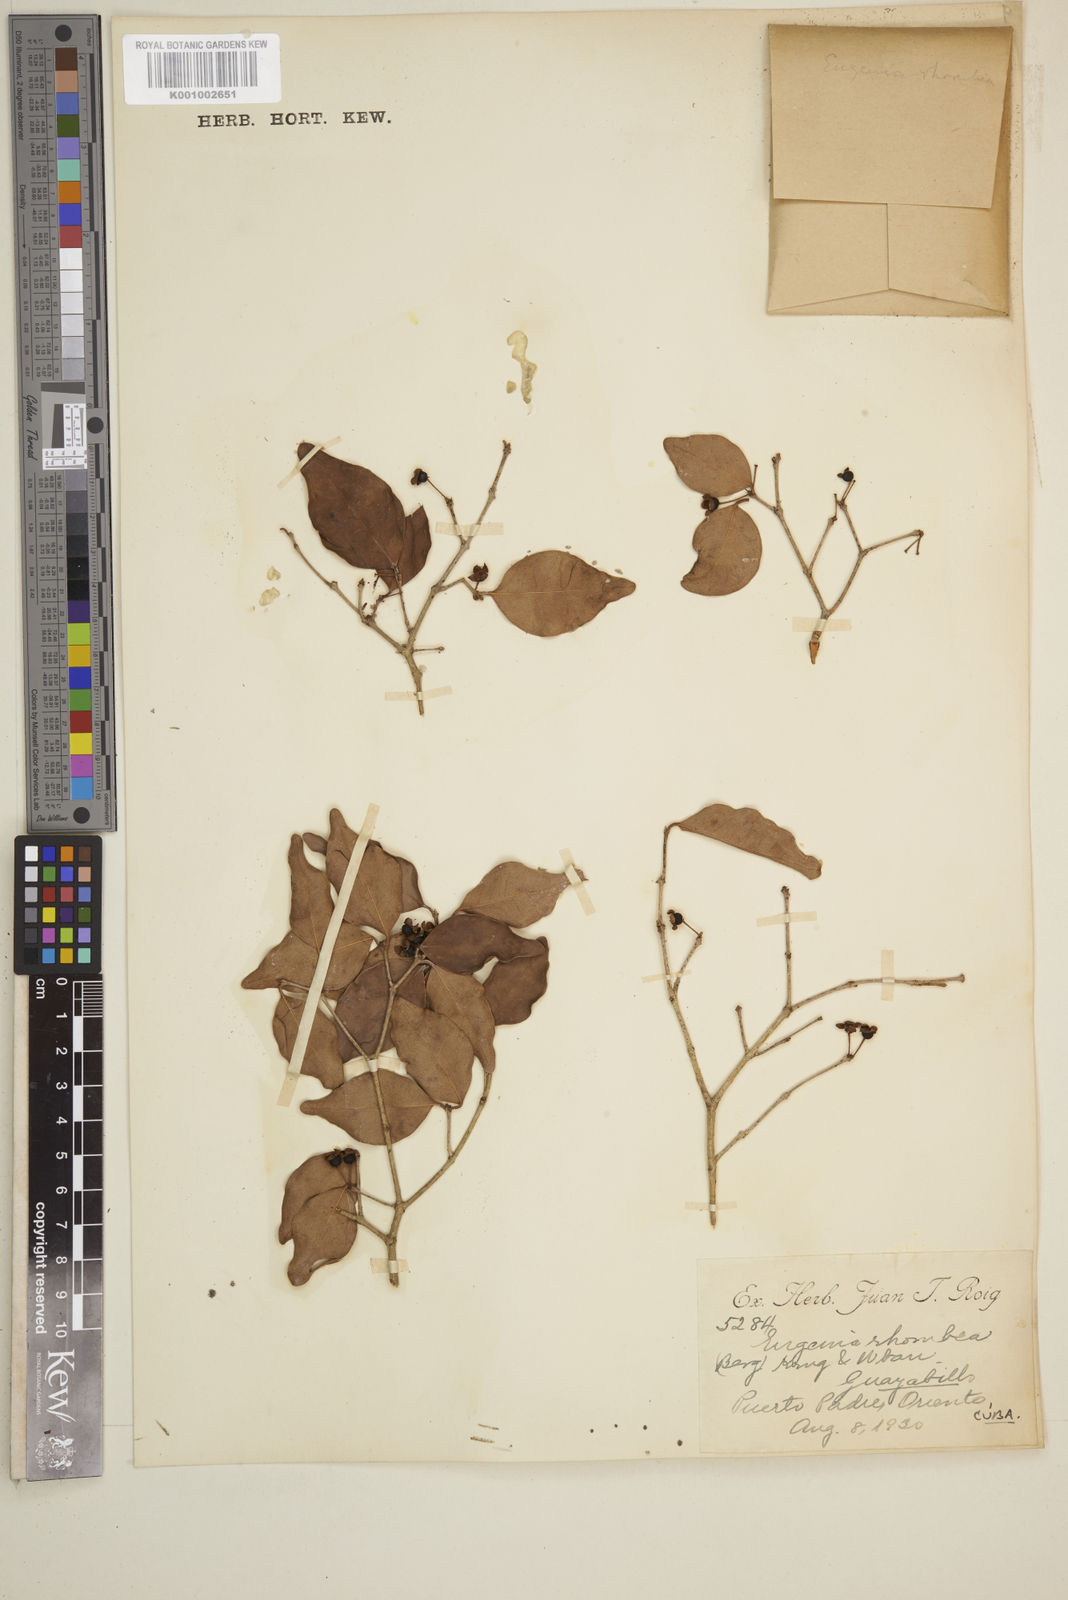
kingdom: Plantae
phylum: Tracheophyta
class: Magnoliopsida
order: Myrtales
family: Myrtaceae
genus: Eugenia
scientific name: Eugenia rhombea
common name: Pigeon berry
